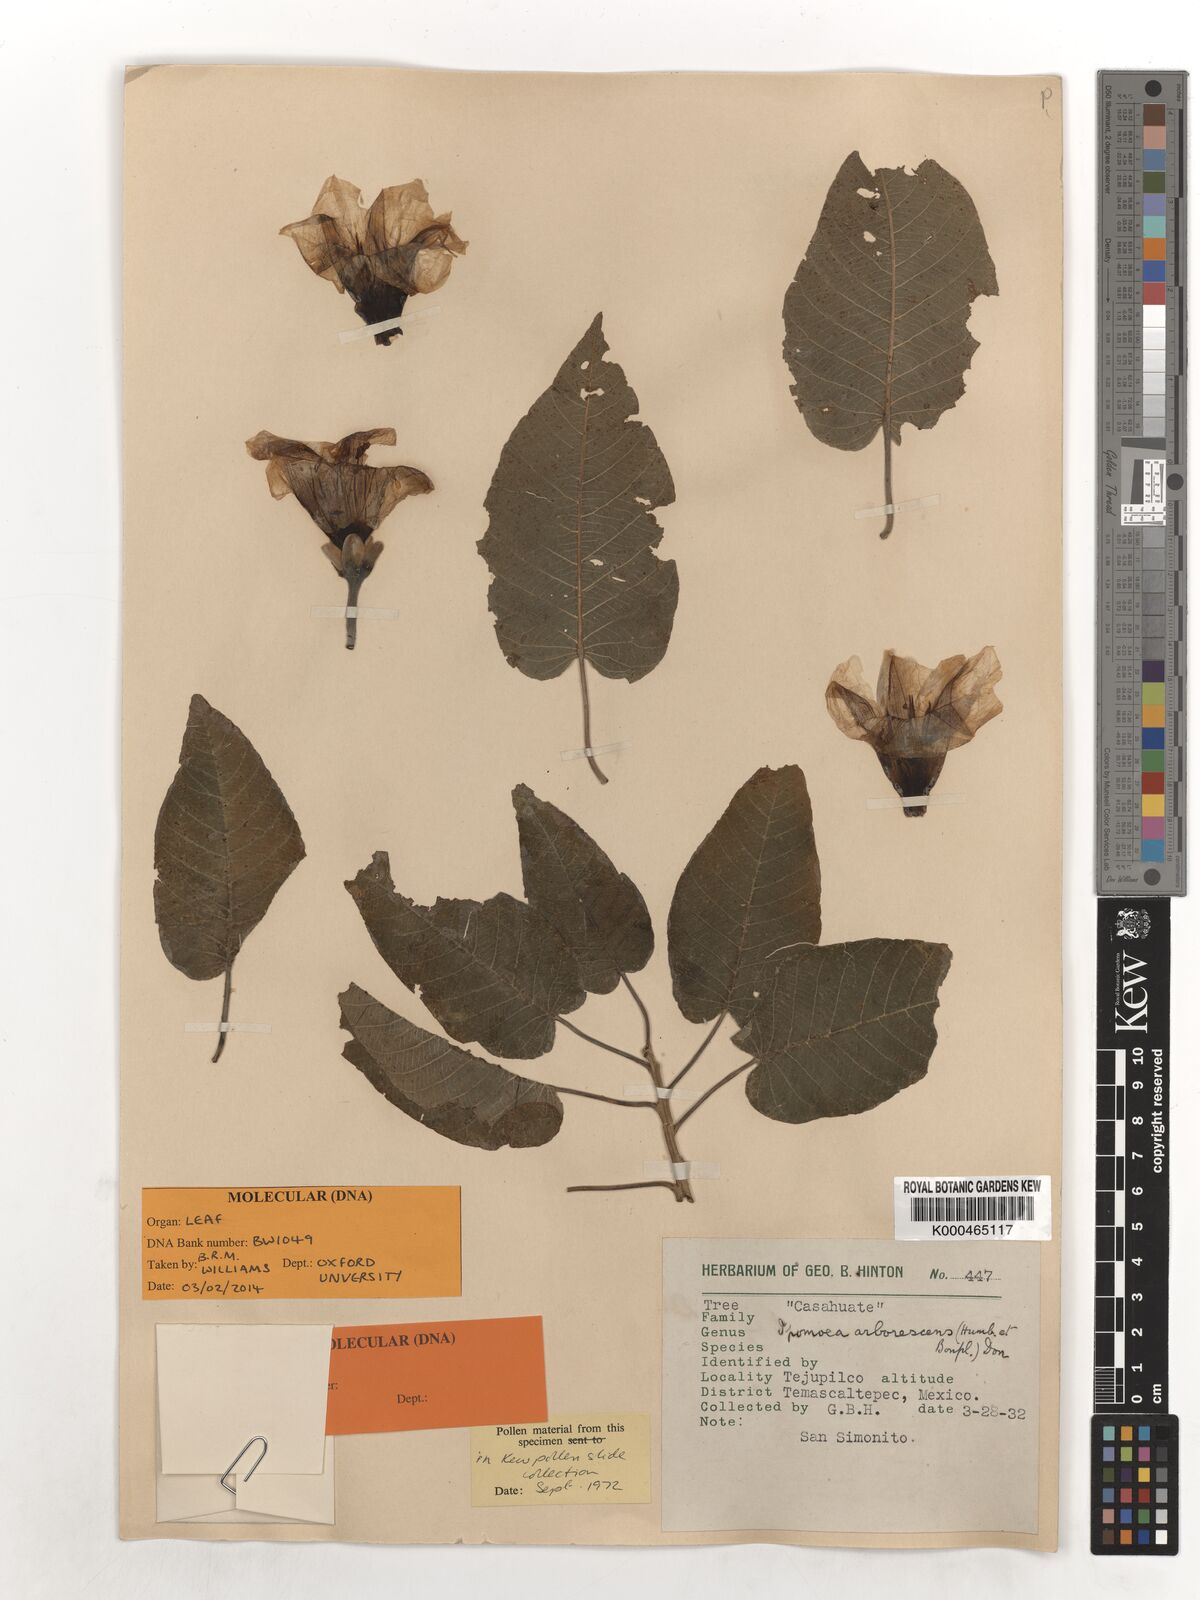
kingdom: Plantae
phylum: Tracheophyta
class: Magnoliopsida
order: Solanales
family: Convolvulaceae
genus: Ipomoea
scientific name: Ipomoea arborescens
